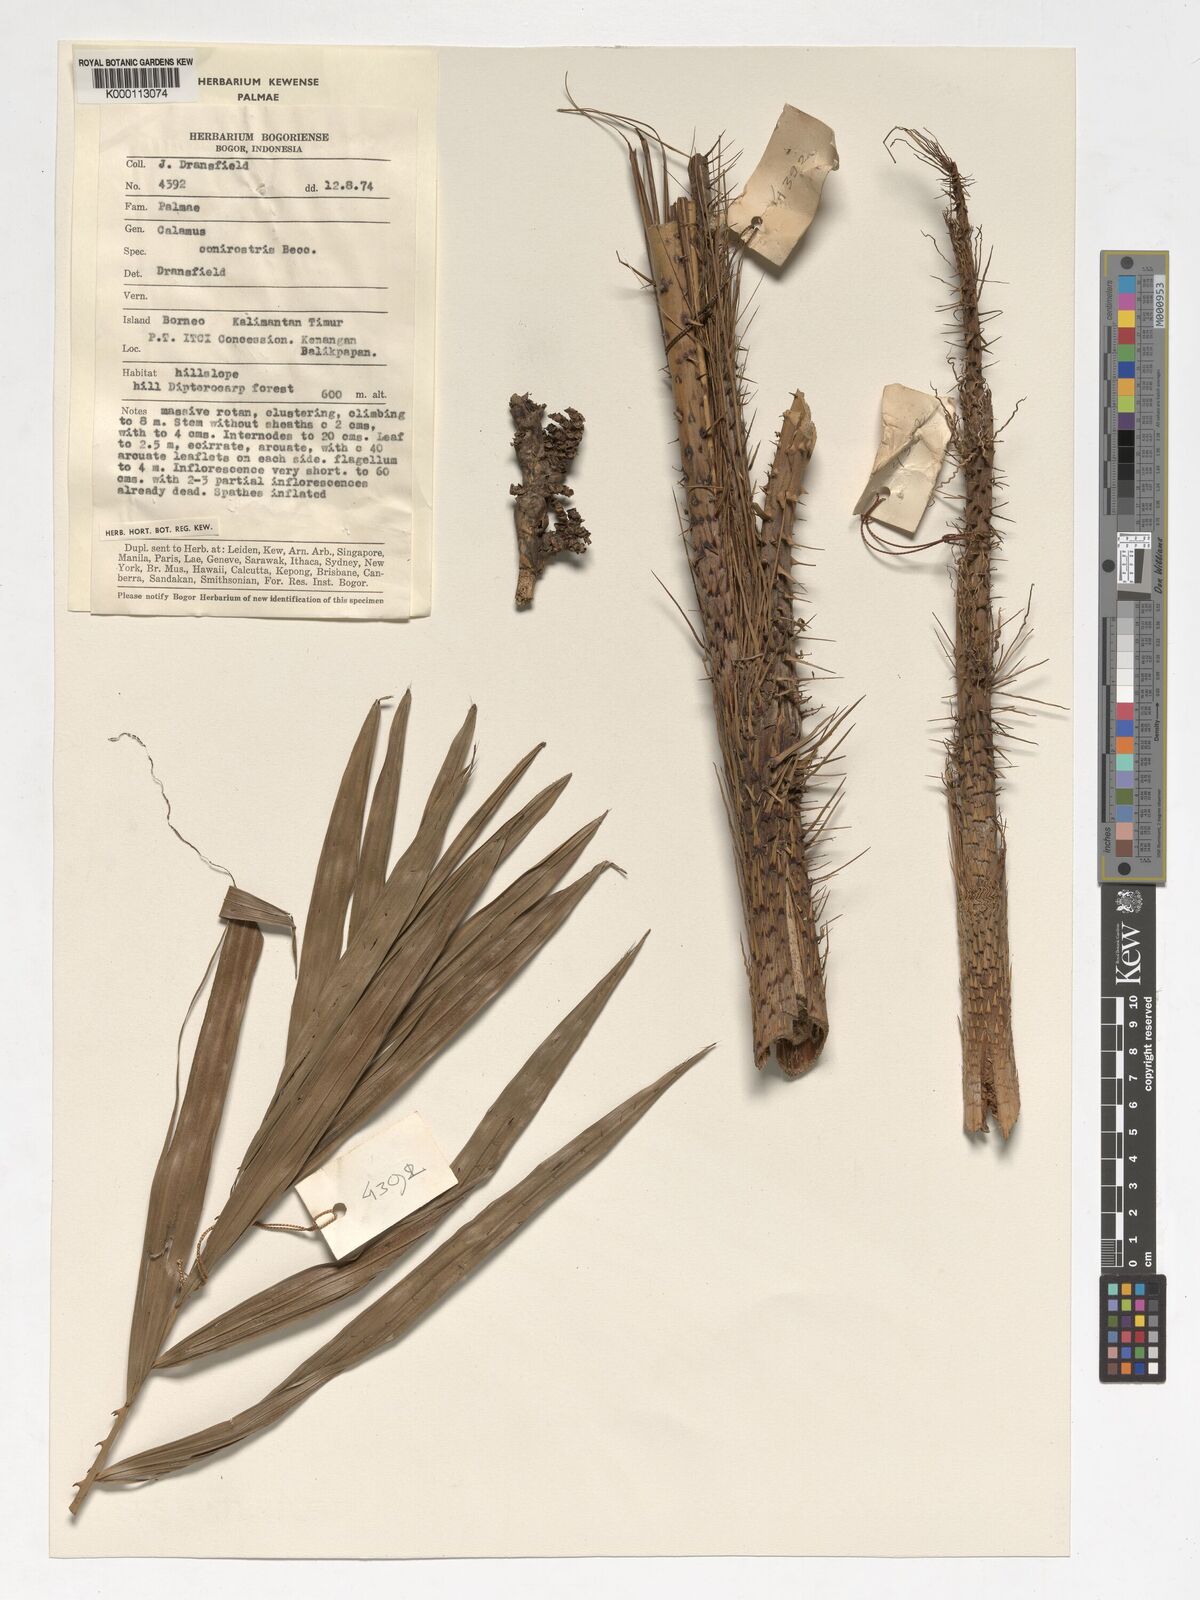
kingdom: Plantae
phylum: Tracheophyta
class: Liliopsida
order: Arecales
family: Arecaceae
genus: Calamus
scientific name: Calamus conirostris
